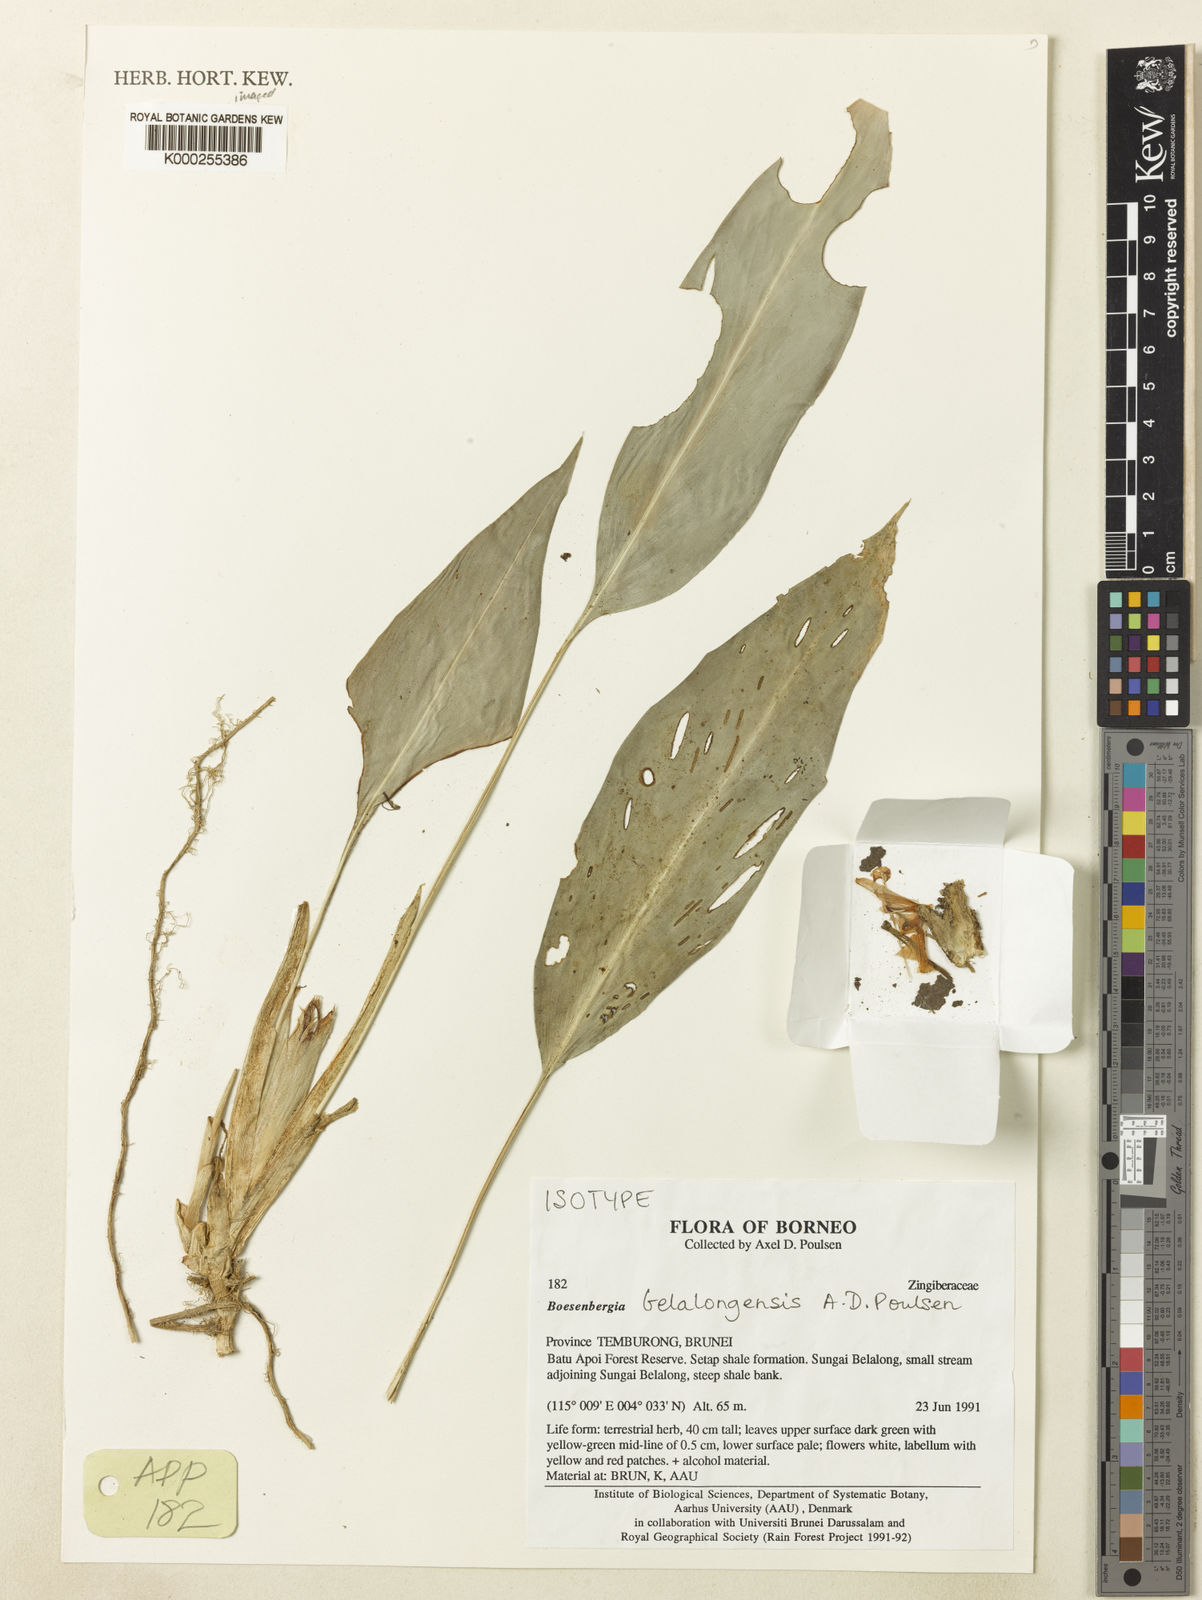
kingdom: Plantae
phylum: Tracheophyta
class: Liliopsida
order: Zingiberales
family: Zingiberaceae
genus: Boesenbergia
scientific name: Boesenbergia belalongensis
